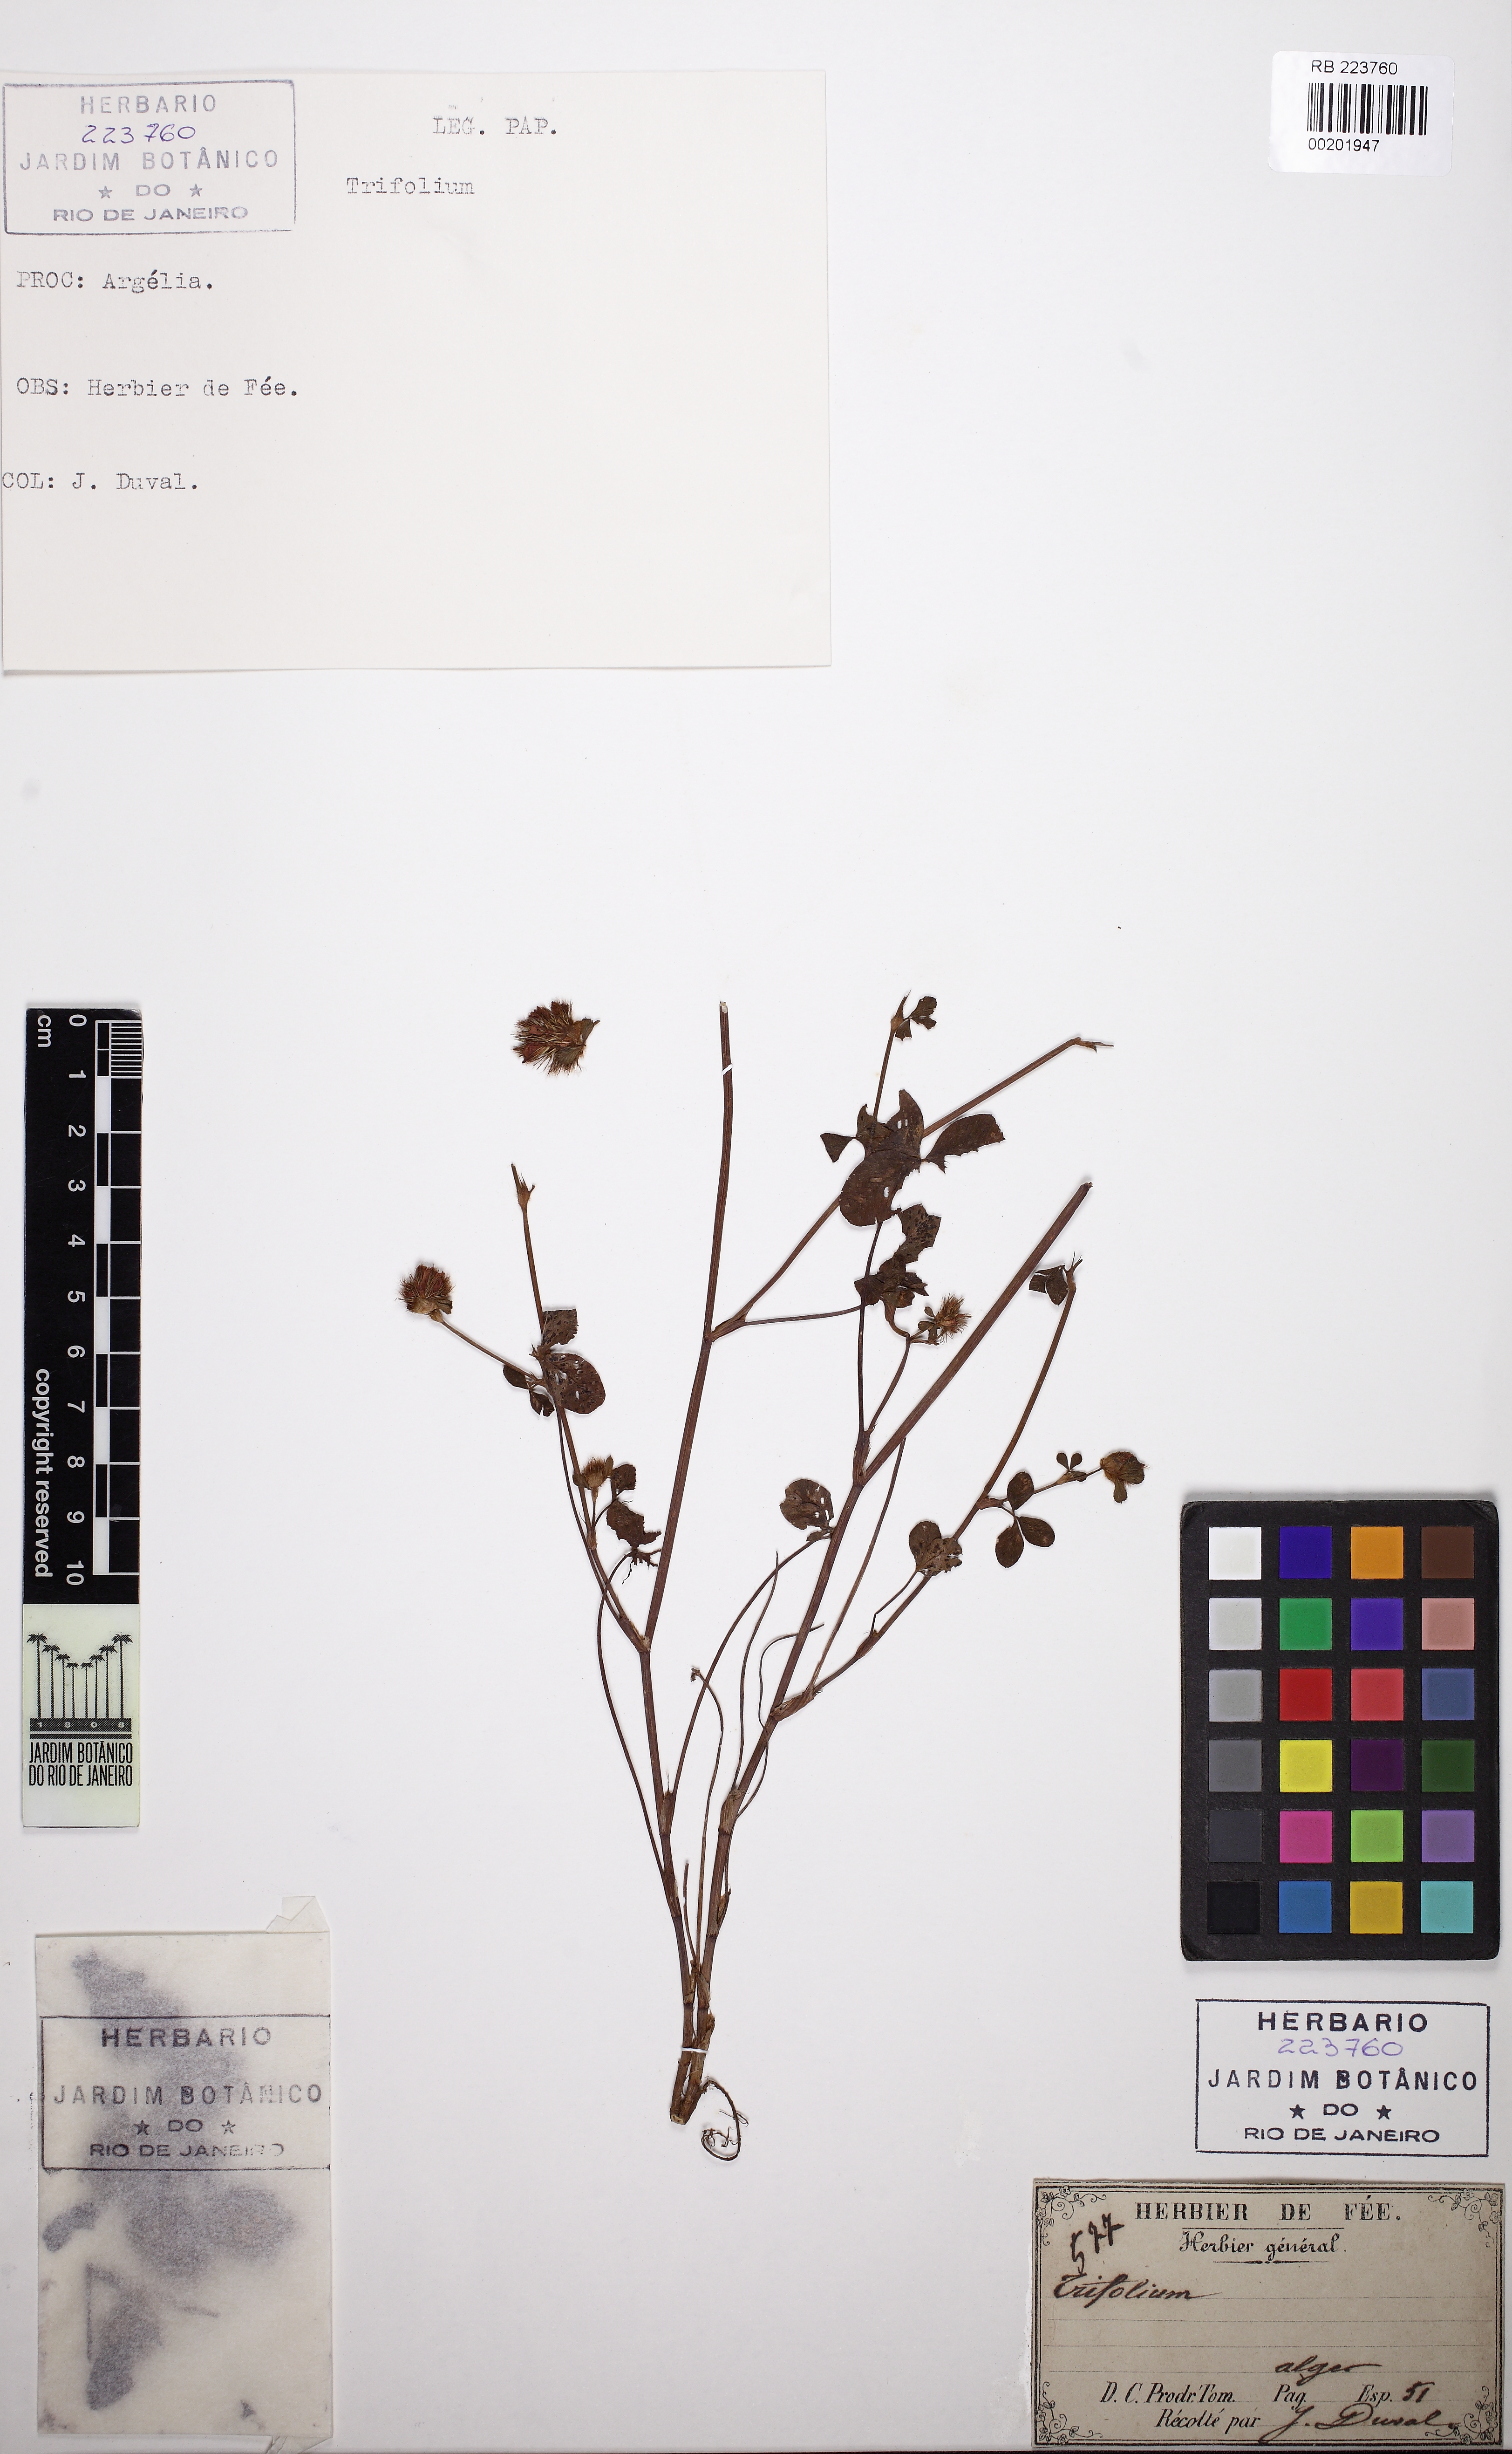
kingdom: Plantae
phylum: Tracheophyta
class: Magnoliopsida
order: Fabales
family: Fabaceae
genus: Trifolium
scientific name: Trifolium
